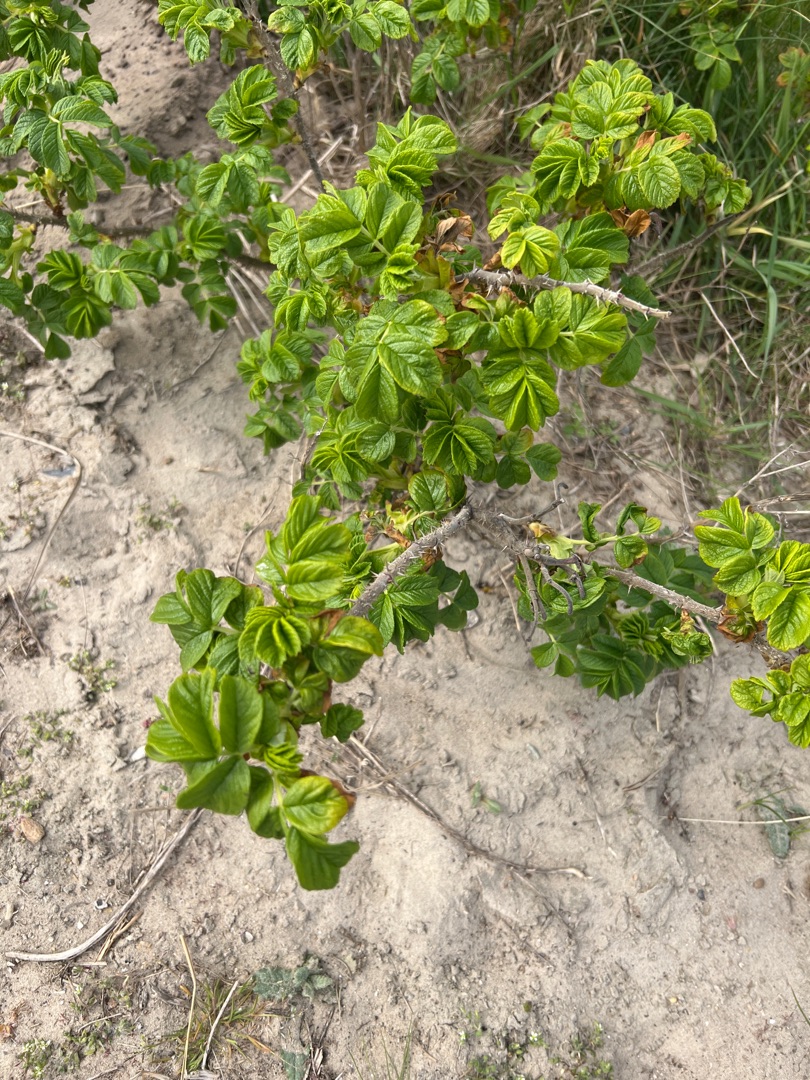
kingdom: Plantae
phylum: Tracheophyta
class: Magnoliopsida
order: Rosales
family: Rosaceae
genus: Rosa
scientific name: Rosa rugosa
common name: Rynket rose
